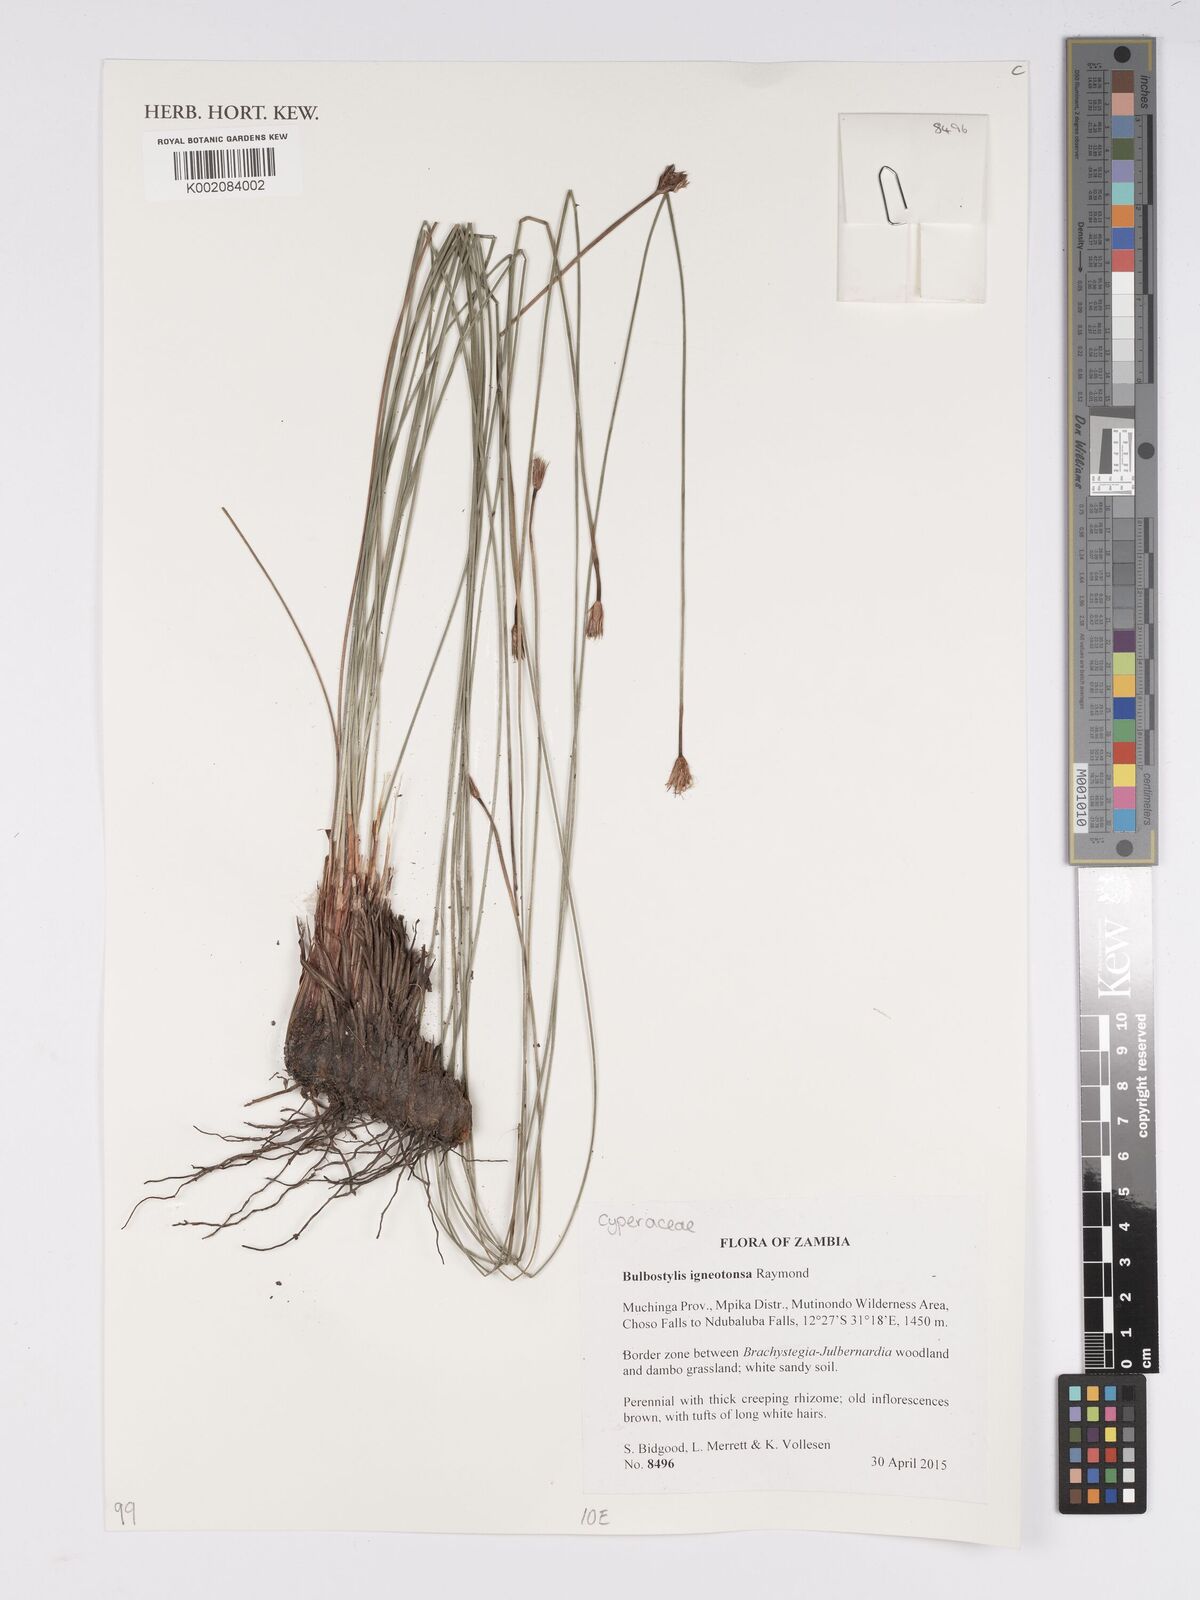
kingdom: Plantae
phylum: Tracheophyta
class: Liliopsida
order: Poales
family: Cyperaceae
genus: Bulbostylis
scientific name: Bulbostylis igneotonsa
